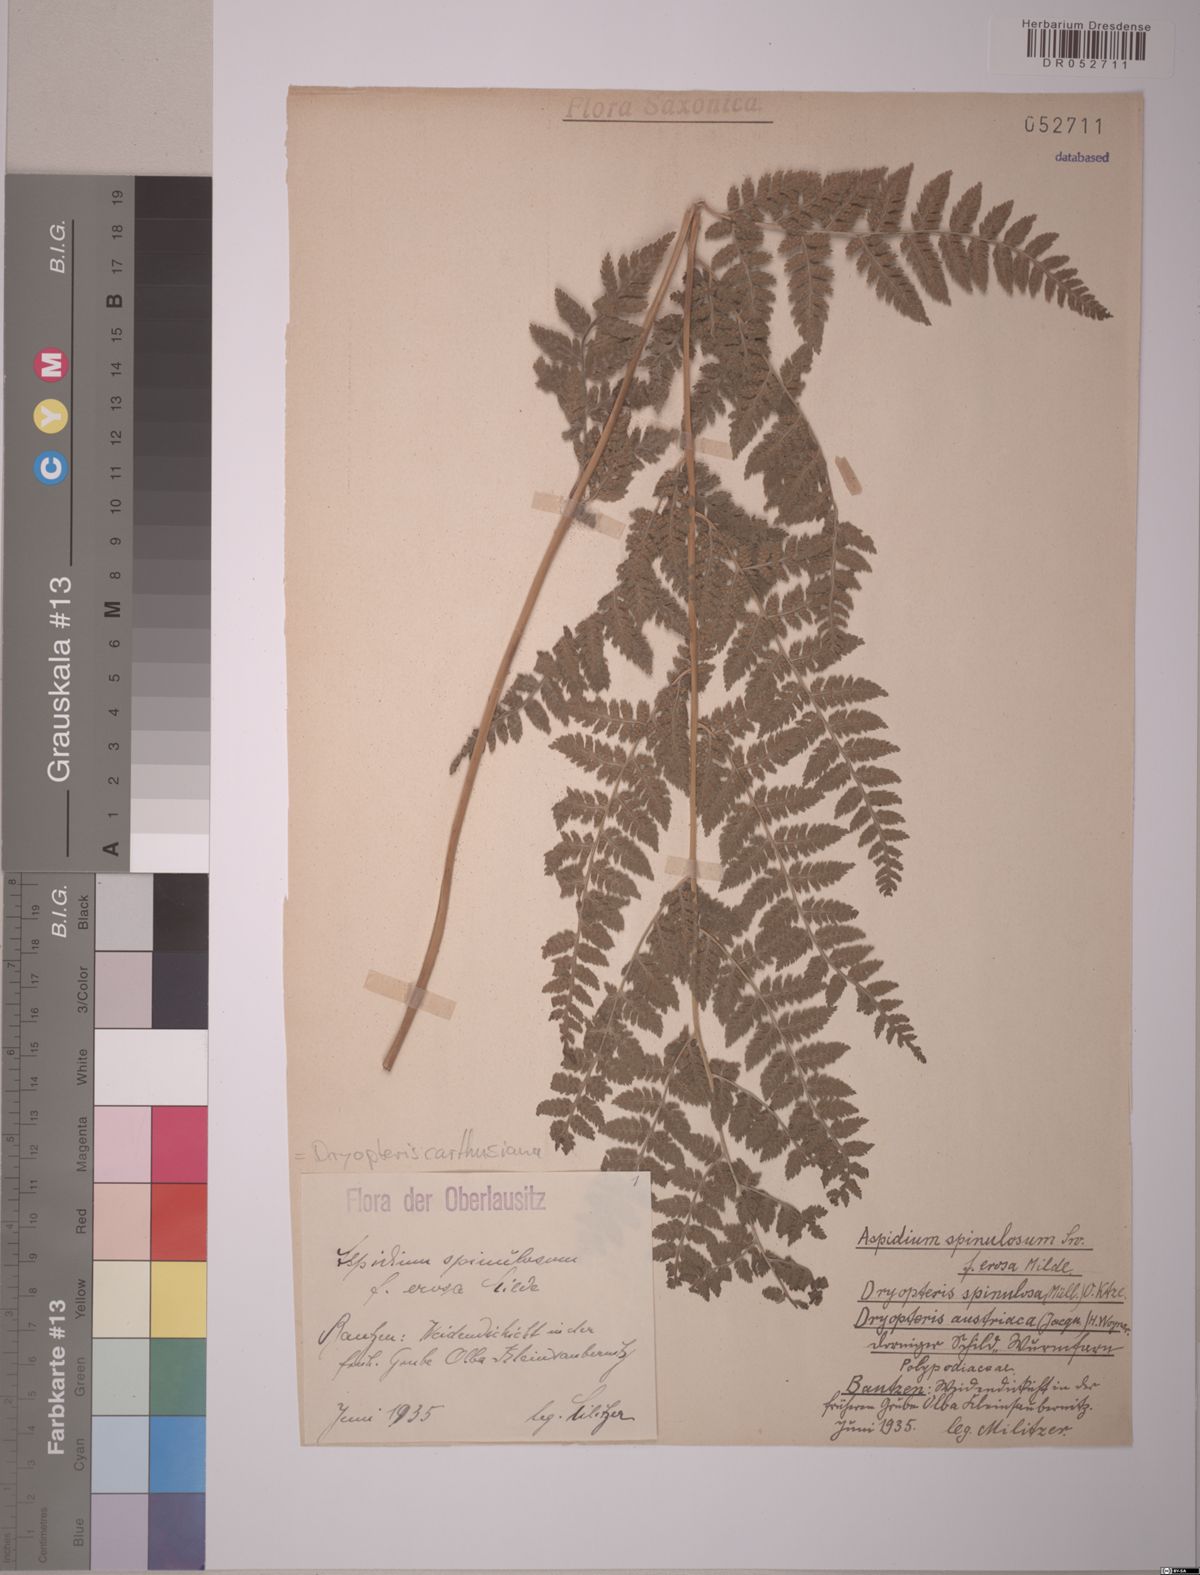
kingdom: Plantae
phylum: Tracheophyta
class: Polypodiopsida
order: Polypodiales
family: Dryopteridaceae
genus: Dryopteris
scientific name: Dryopteris carthusiana
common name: Narrow buckler-fern
